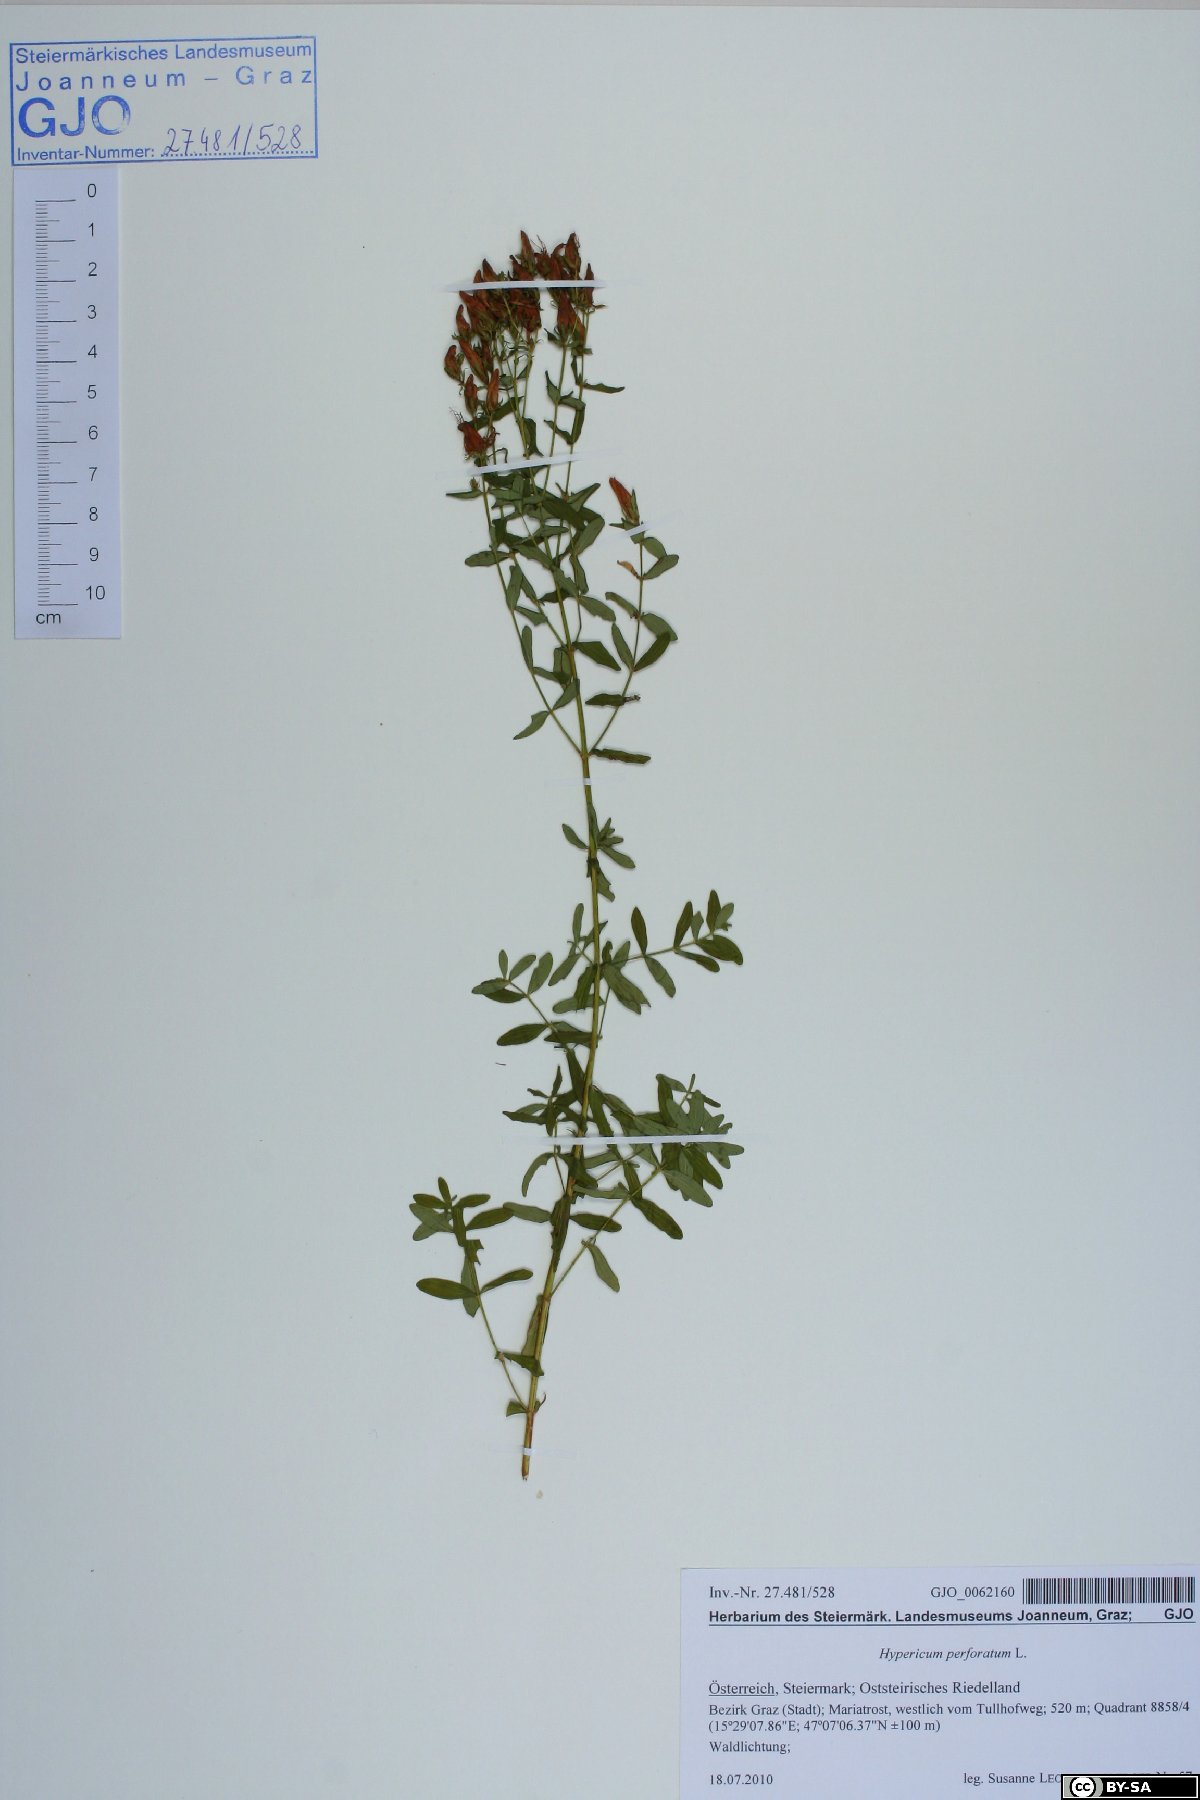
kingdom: Plantae
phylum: Tracheophyta
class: Magnoliopsida
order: Malpighiales
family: Hypericaceae
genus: Hypericum
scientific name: Hypericum perforatum
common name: Common st. johnswort
